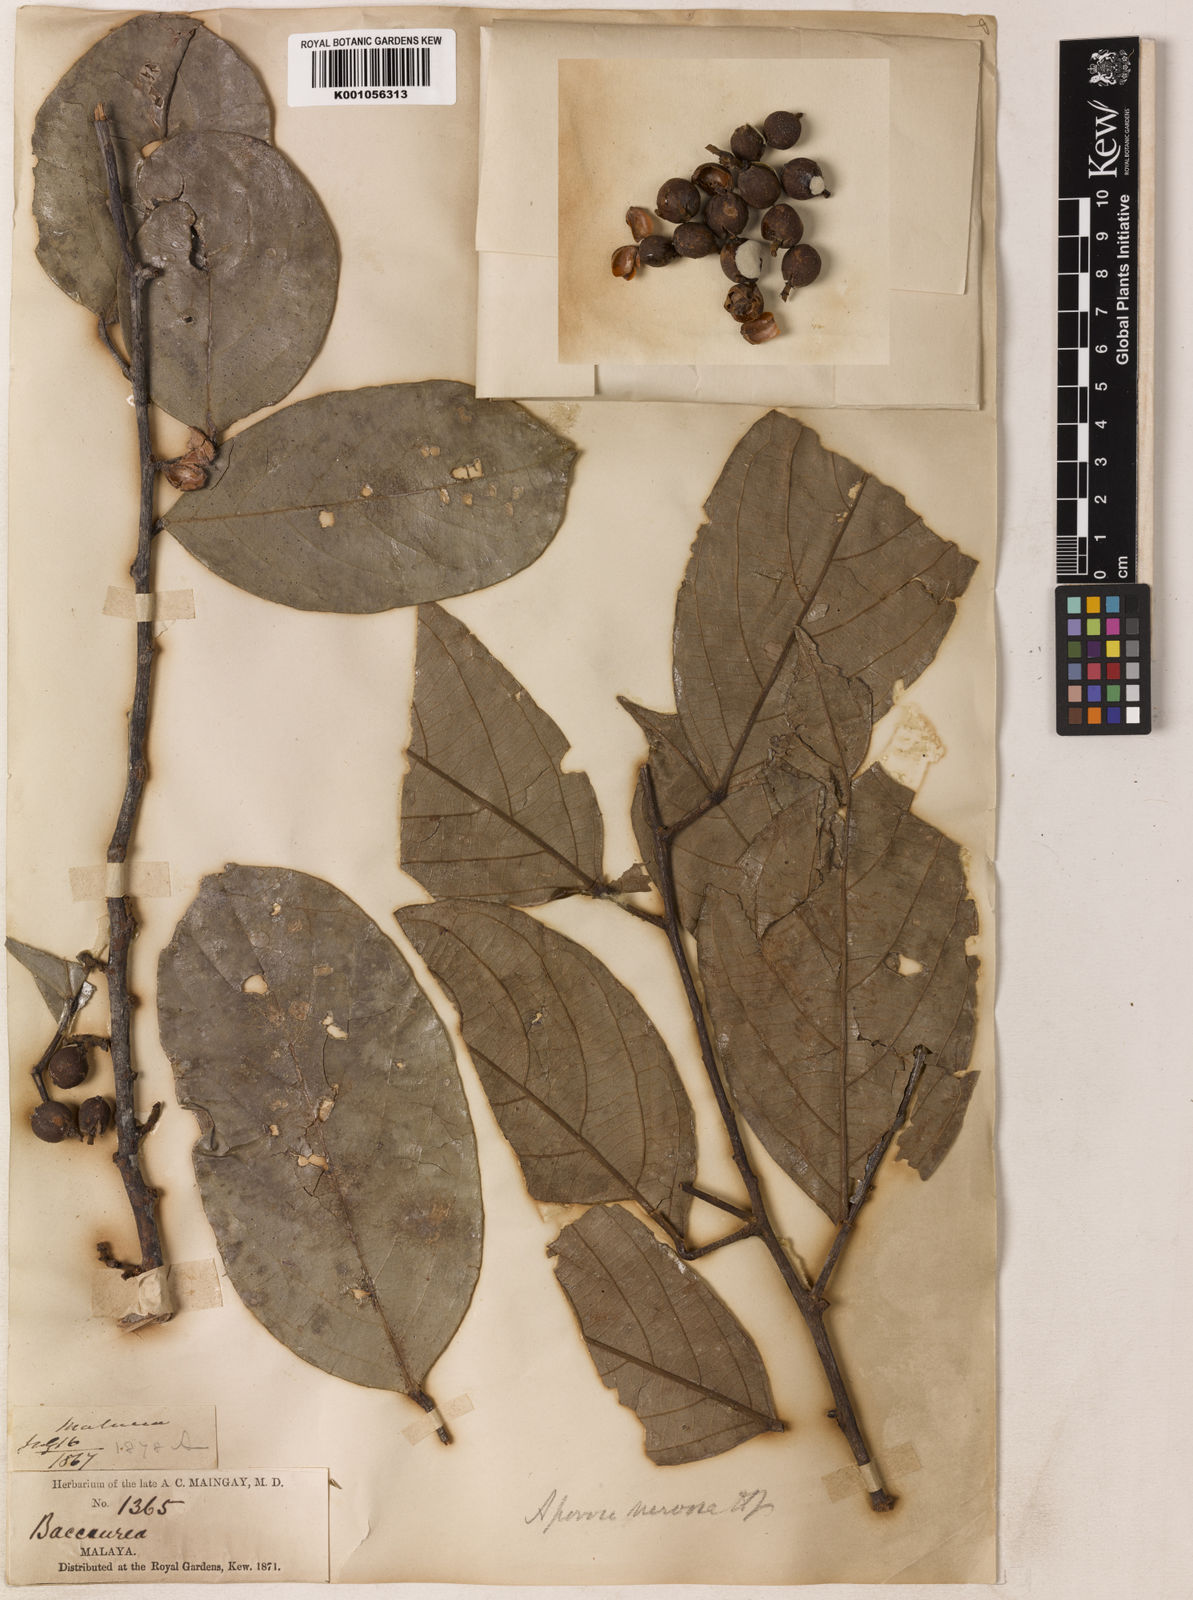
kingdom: Plantae
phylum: Tracheophyta
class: Magnoliopsida
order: Malpighiales
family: Phyllanthaceae
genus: Aporosa
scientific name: Aporosa nervosa
